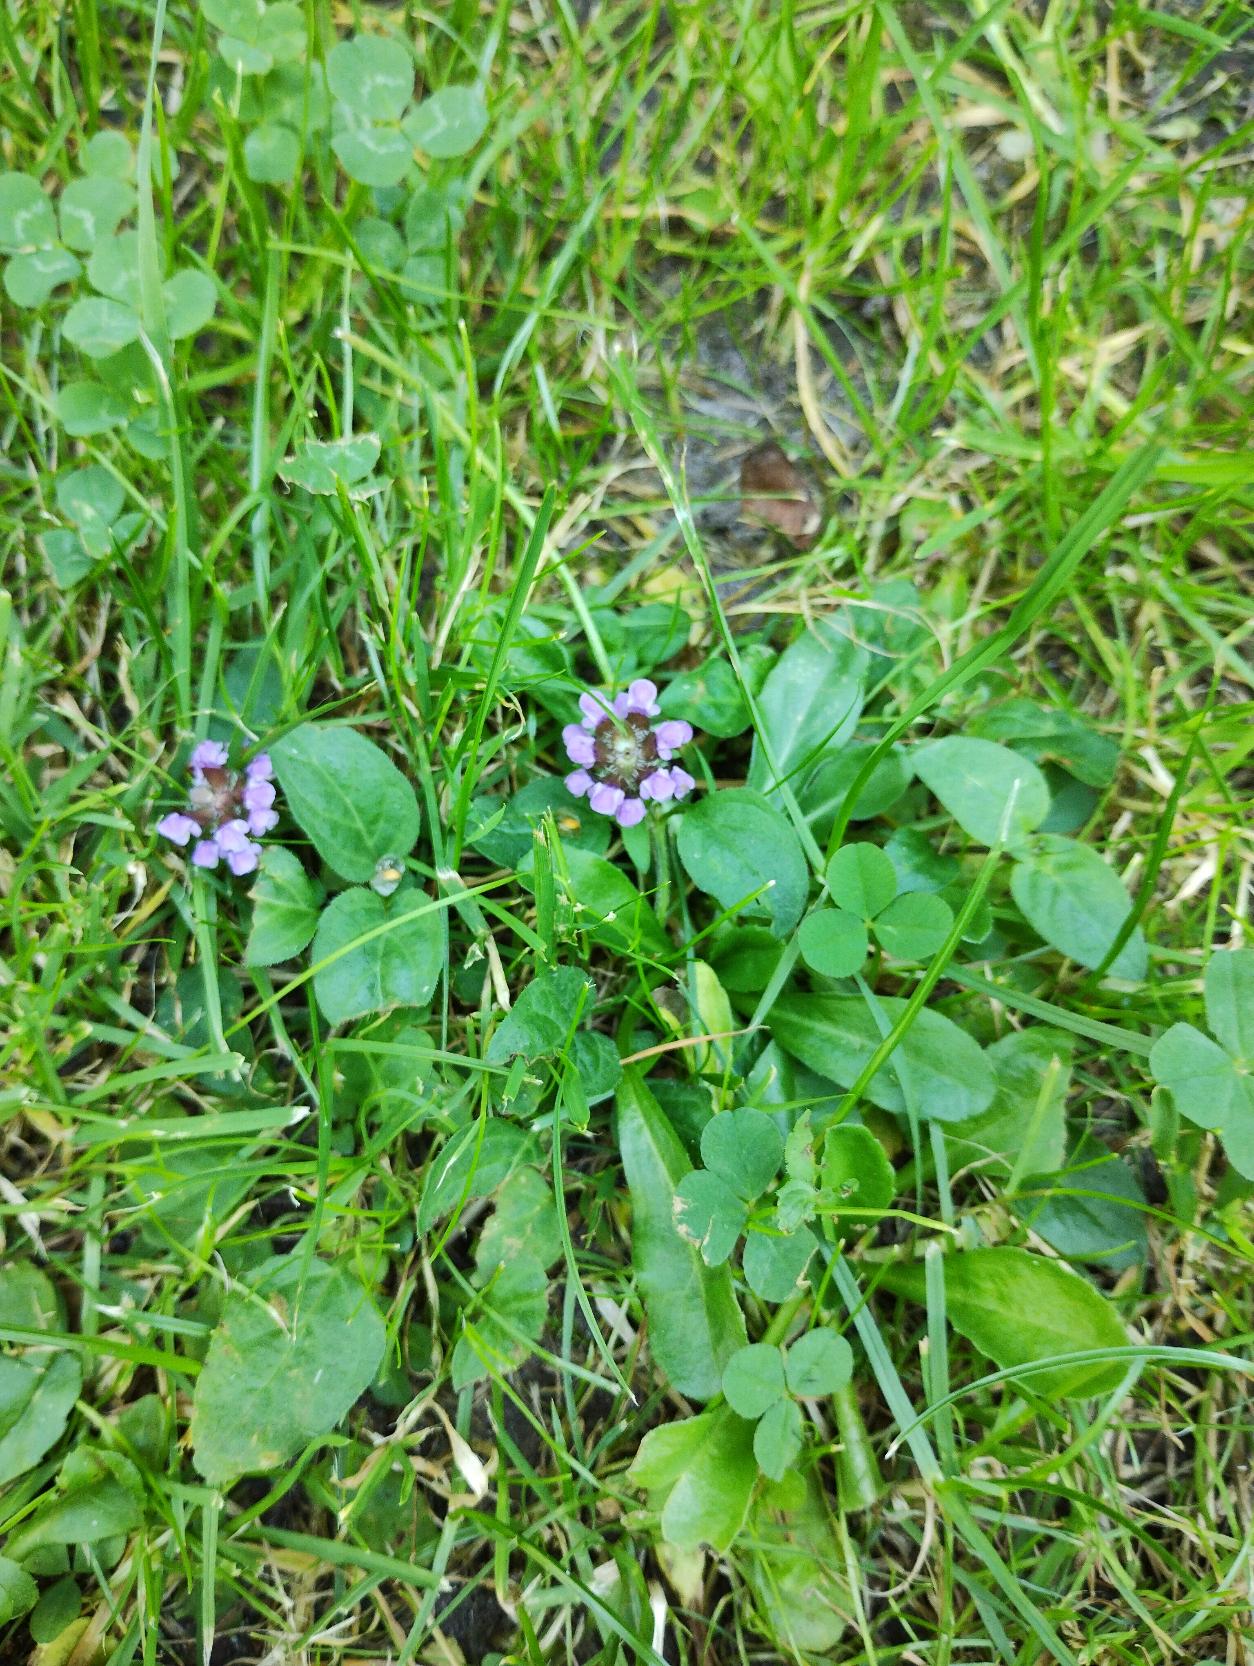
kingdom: Plantae
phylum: Tracheophyta
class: Magnoliopsida
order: Lamiales
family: Lamiaceae
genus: Prunella
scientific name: Prunella vulgaris
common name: Almindelig brunelle
